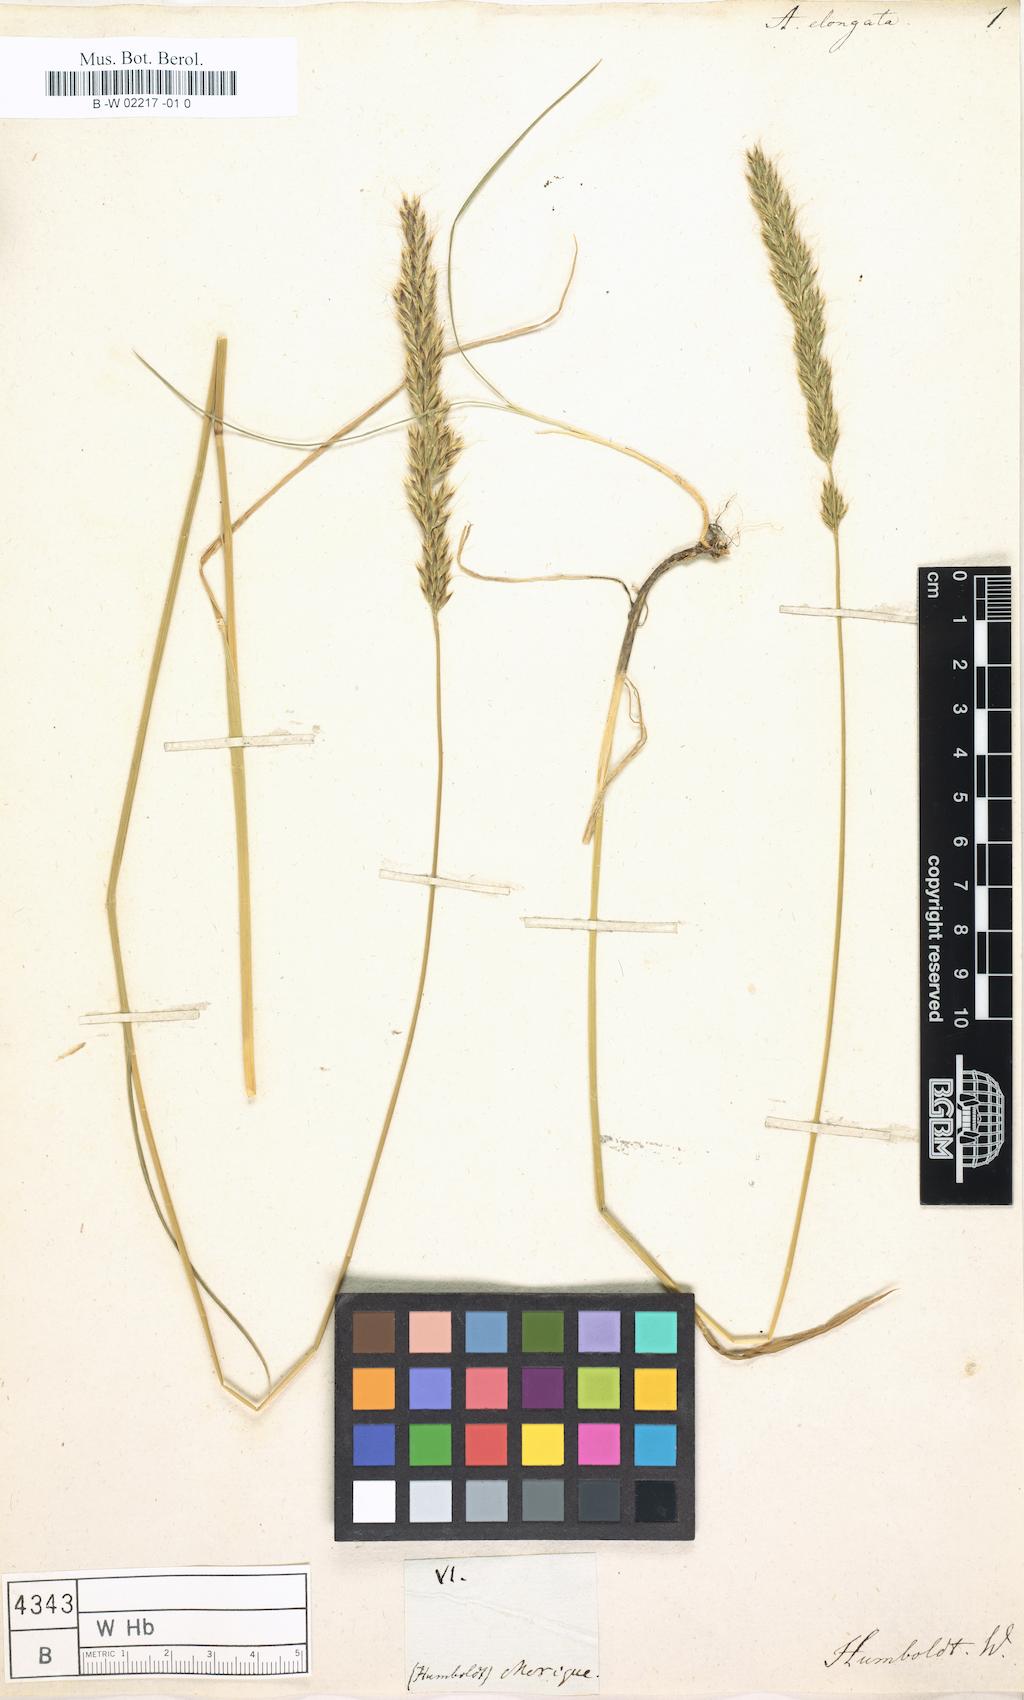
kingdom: Plantae
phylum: Tracheophyta
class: Liliopsida
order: Poales
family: Poaceae
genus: Sphenopholis
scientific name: Sphenopholis interrupta
